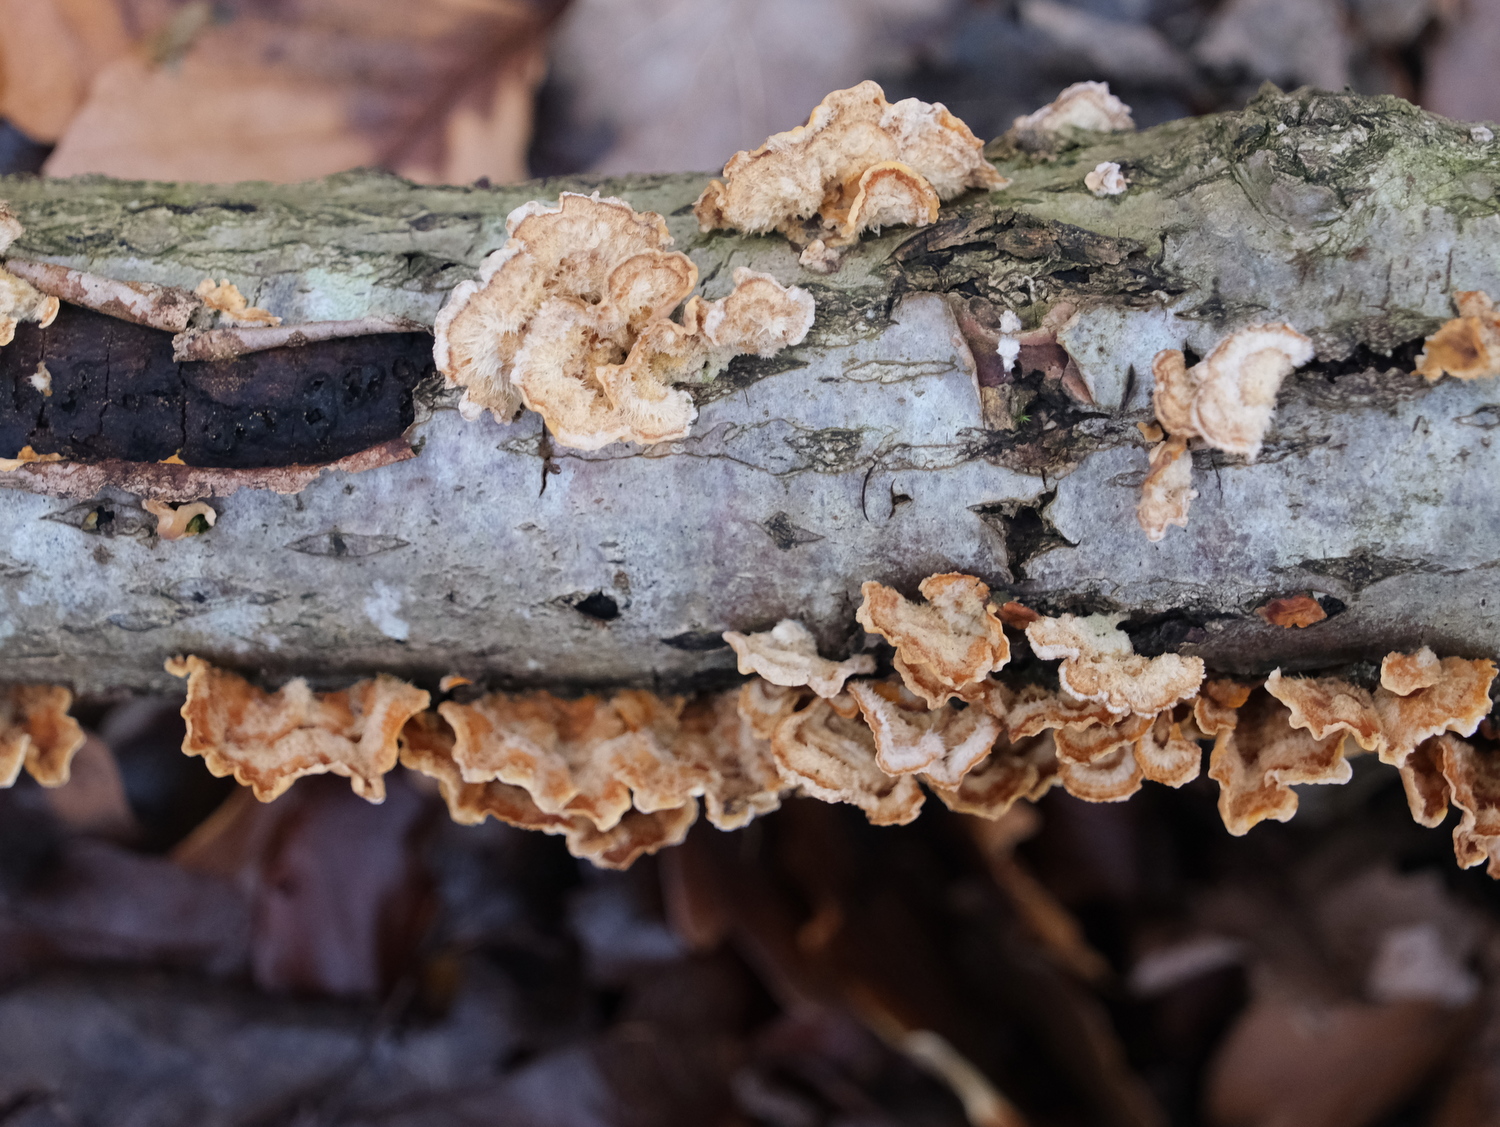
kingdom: Fungi
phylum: Basidiomycota
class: Agaricomycetes
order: Russulales
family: Stereaceae
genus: Stereum
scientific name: Stereum hirsutum
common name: håret lædersvamp
